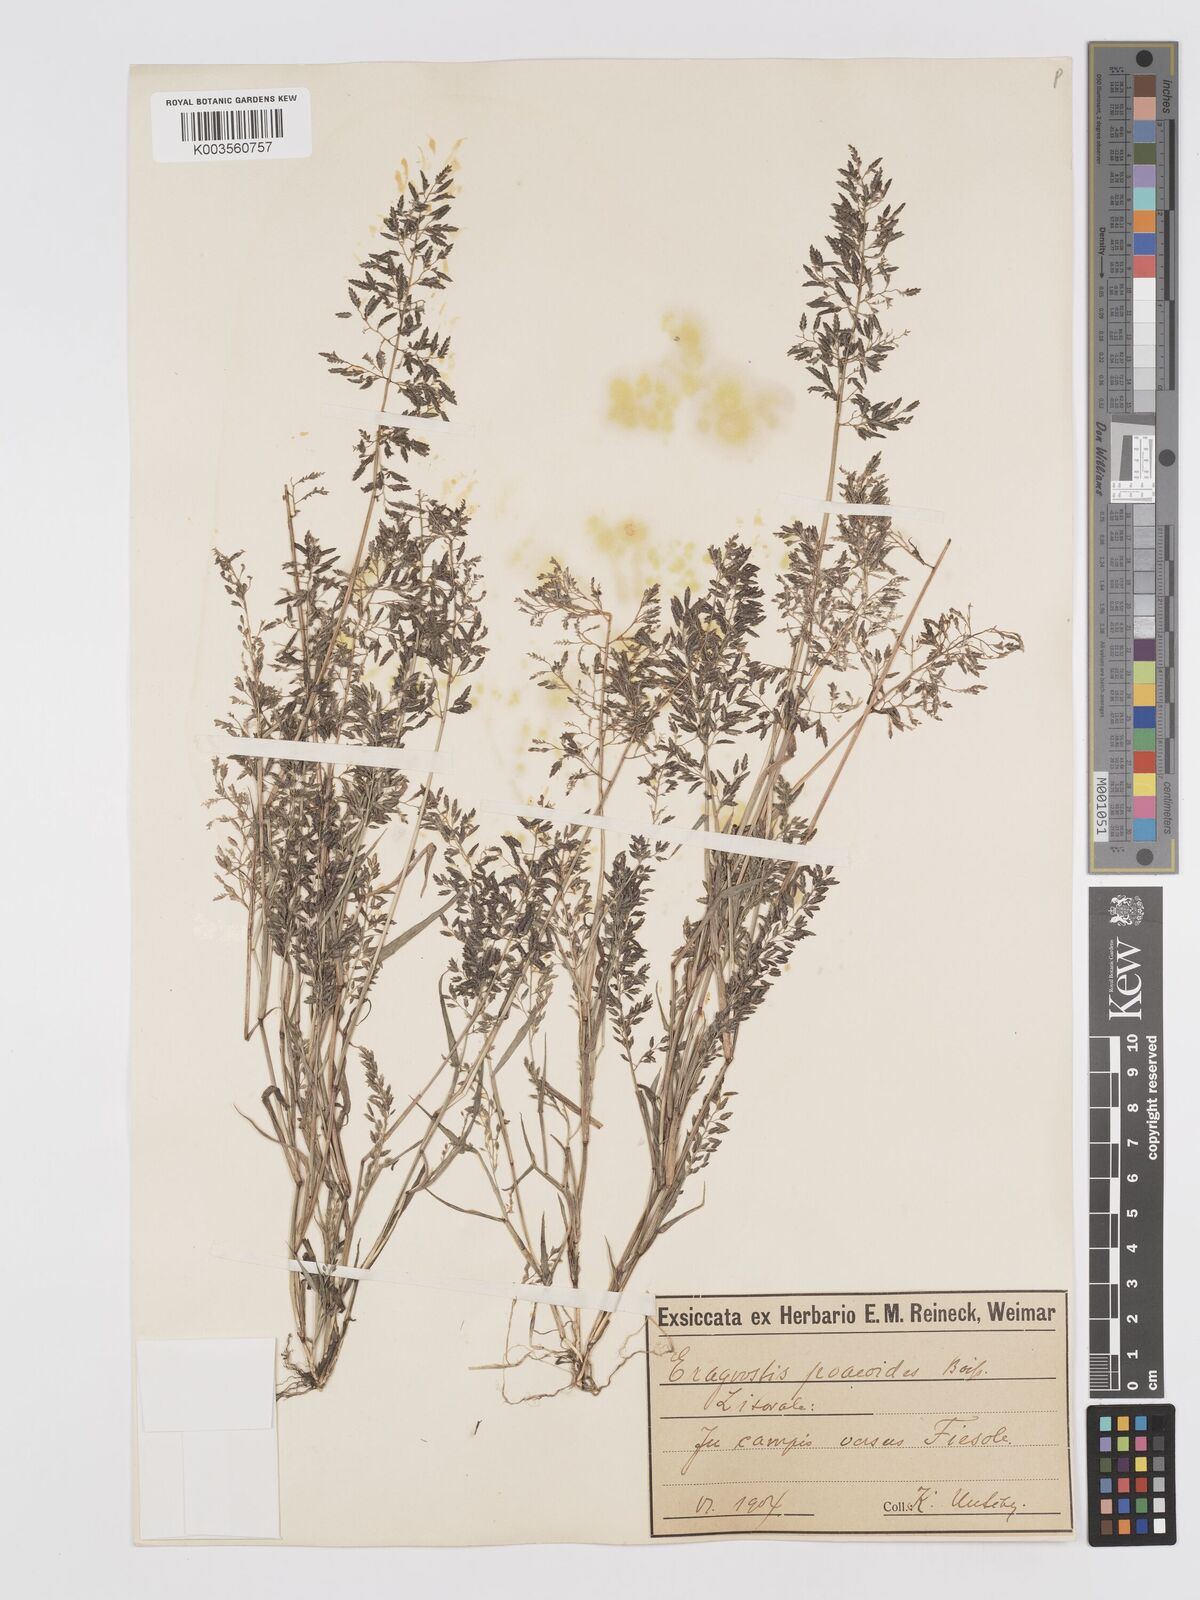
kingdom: Plantae
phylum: Tracheophyta
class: Liliopsida
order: Poales
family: Poaceae
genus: Eragrostis
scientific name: Eragrostis minor
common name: Small love-grass
